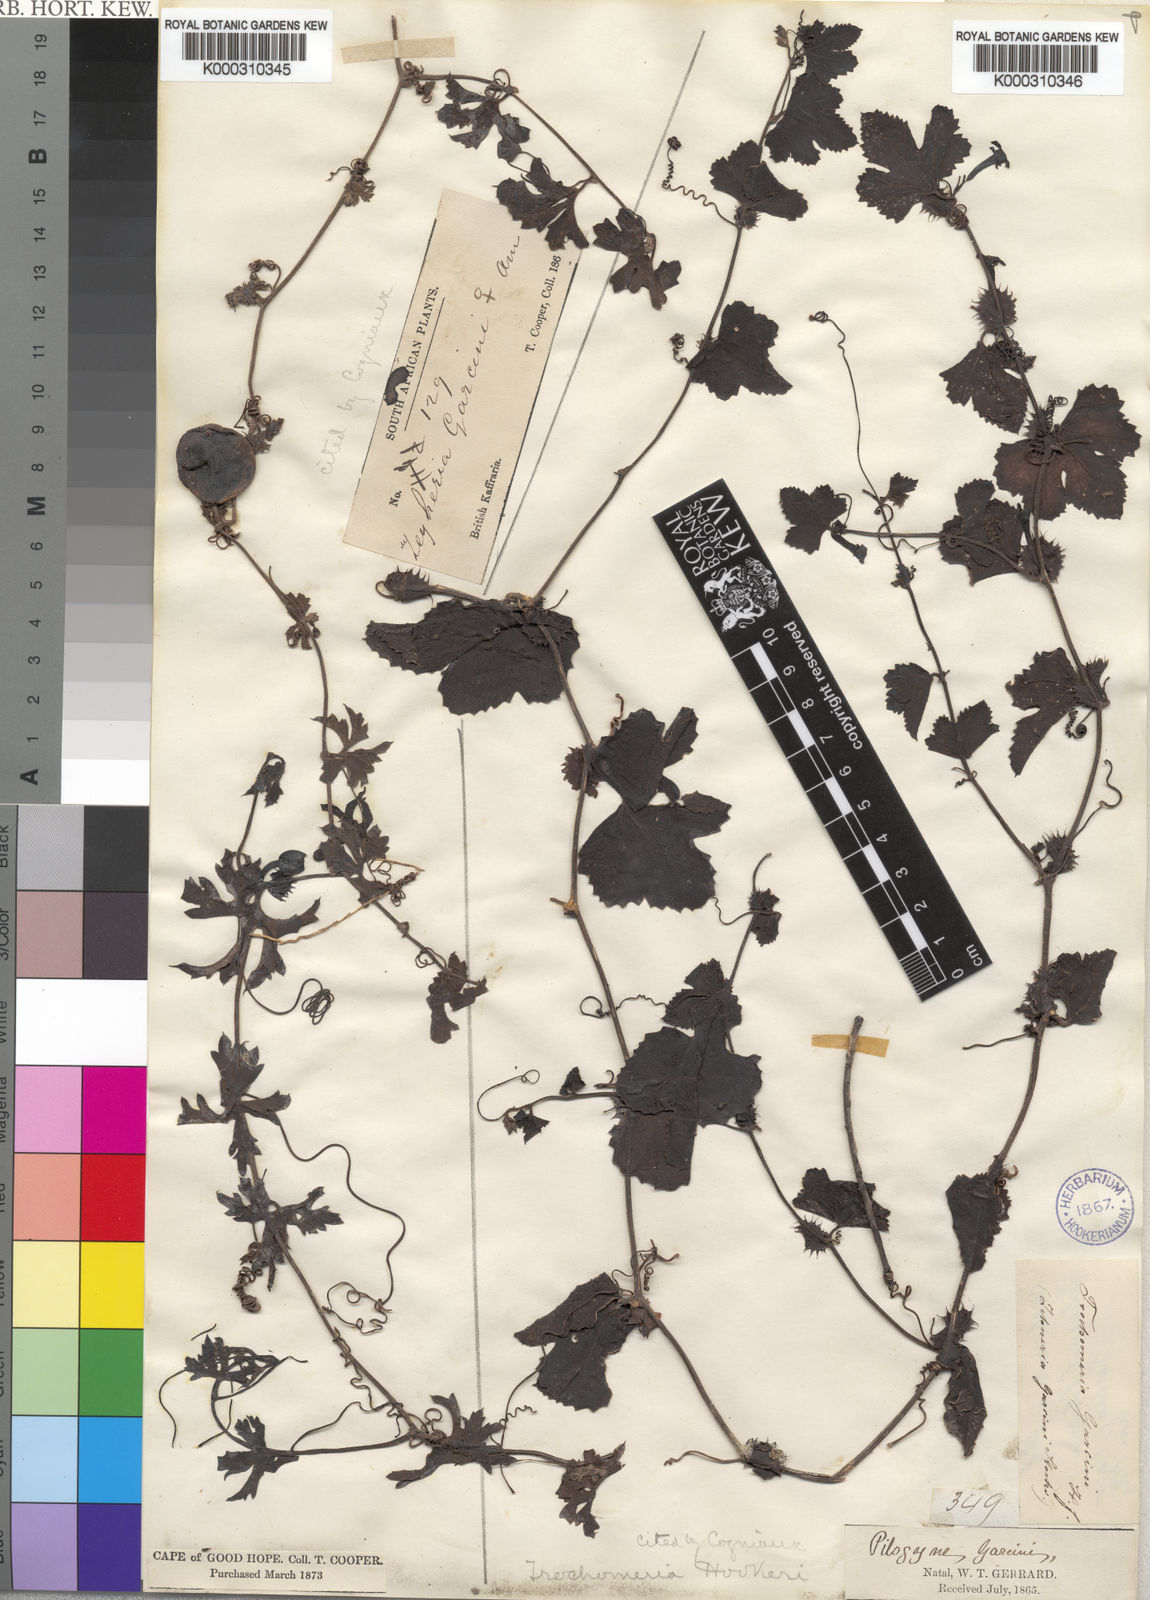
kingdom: Plantae
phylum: Tracheophyta
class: Magnoliopsida
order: Cucurbitales
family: Cucurbitaceae
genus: Trochomeria
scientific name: Trochomeria hookeri
